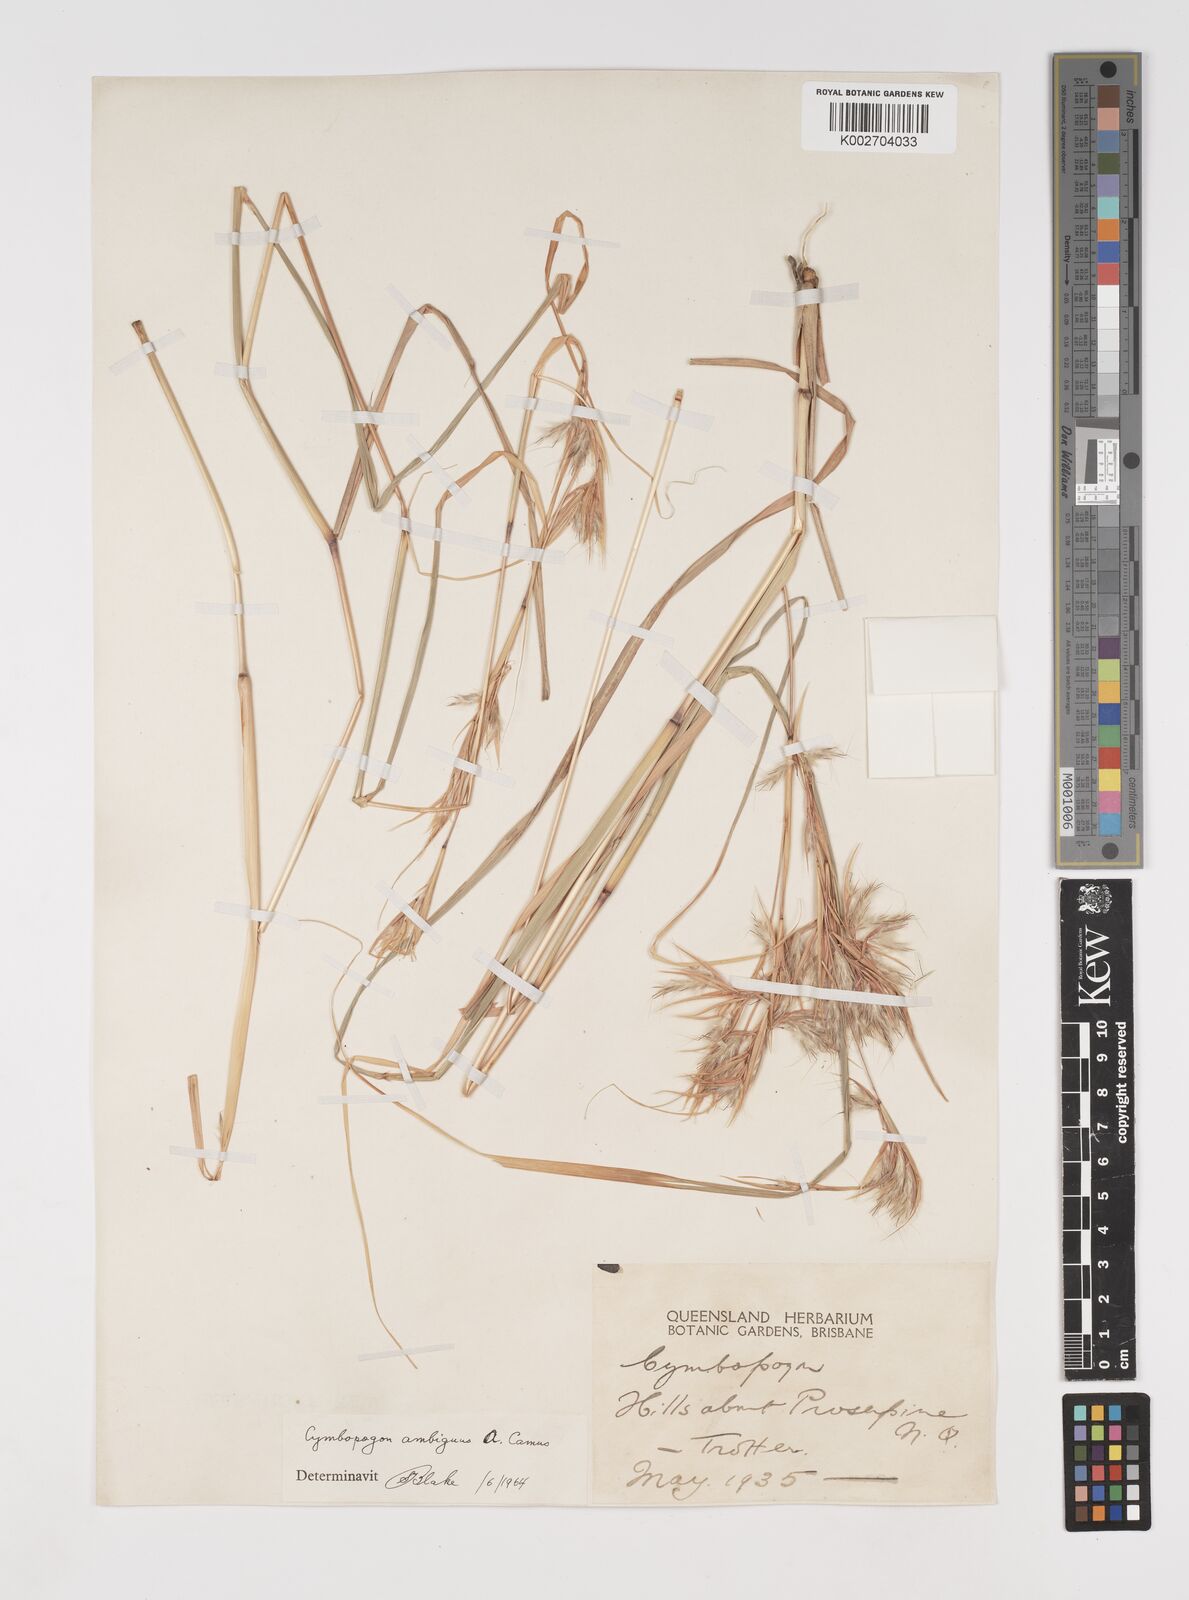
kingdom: Plantae
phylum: Tracheophyta
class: Liliopsida
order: Poales
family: Poaceae
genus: Cymbopogon
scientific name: Cymbopogon ambiguus
